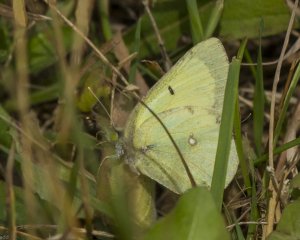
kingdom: Animalia
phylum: Arthropoda
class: Insecta
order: Lepidoptera
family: Pieridae
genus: Colias
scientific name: Colias philodice
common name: Clouded Sulphur
